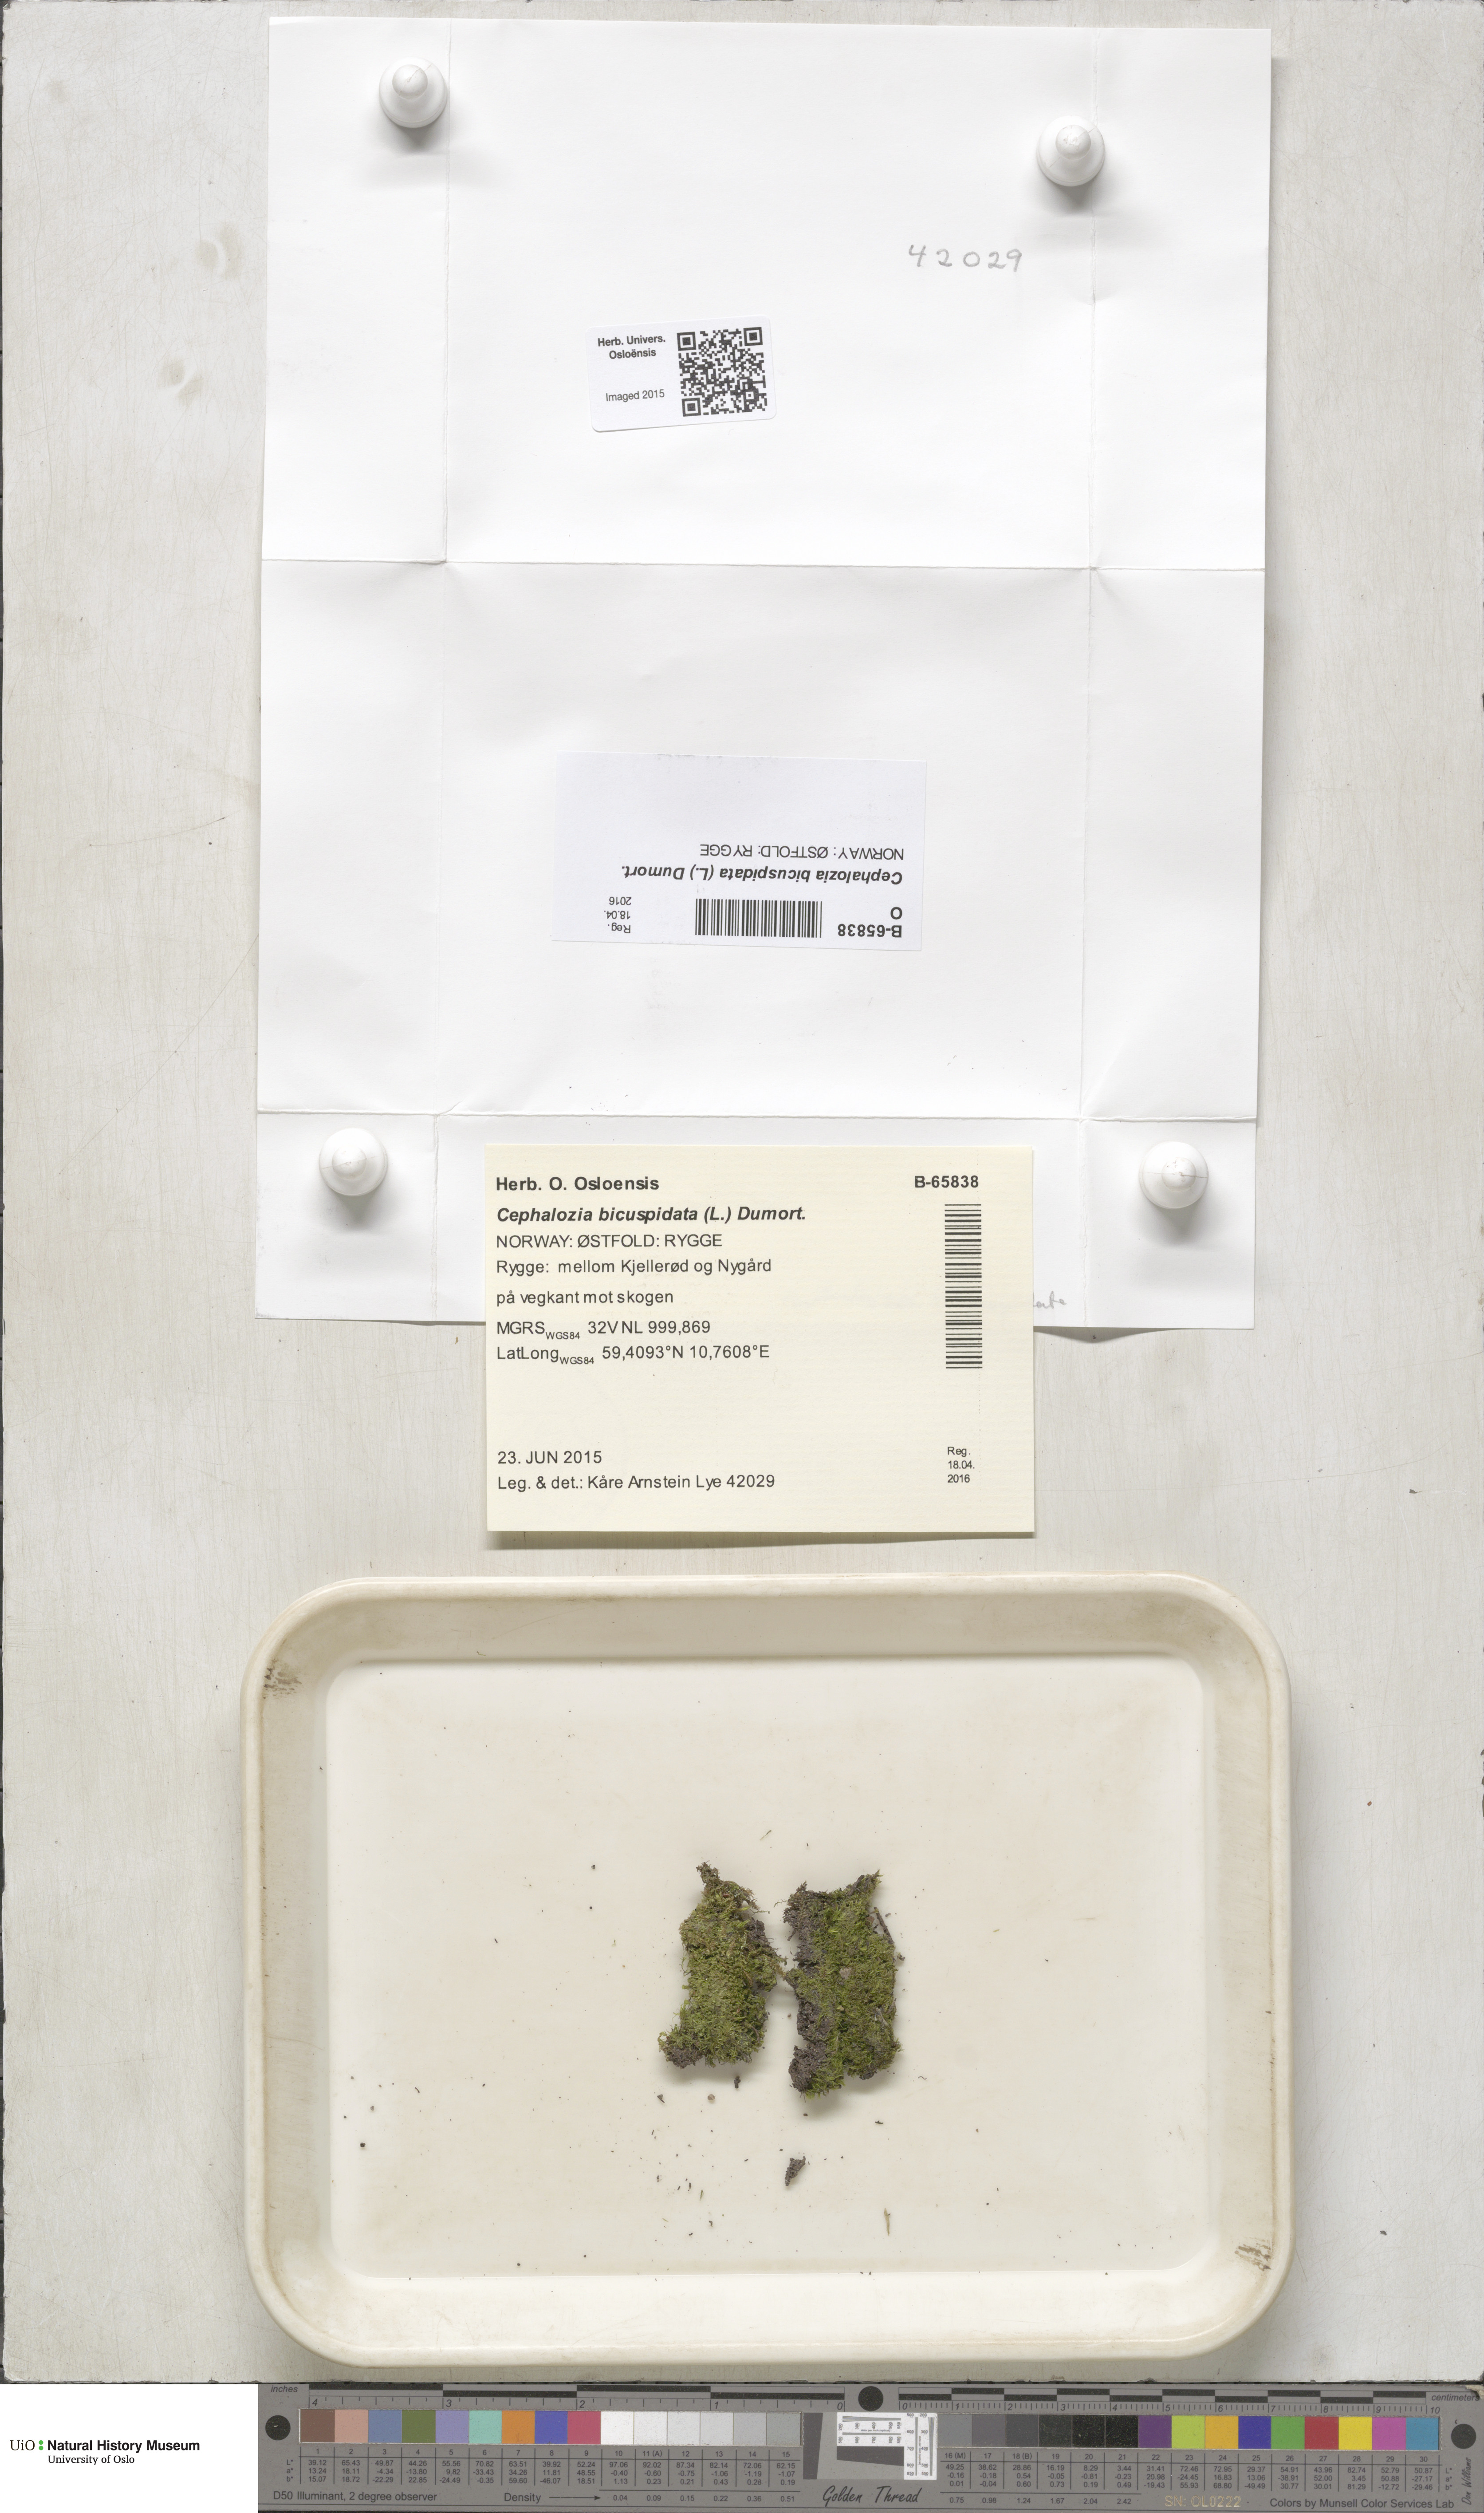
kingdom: Plantae
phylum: Marchantiophyta
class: Jungermanniopsida
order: Jungermanniales
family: Cephaloziaceae
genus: Cephalozia
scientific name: Cephalozia bicuspidata
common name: Two-horned pincerwort
